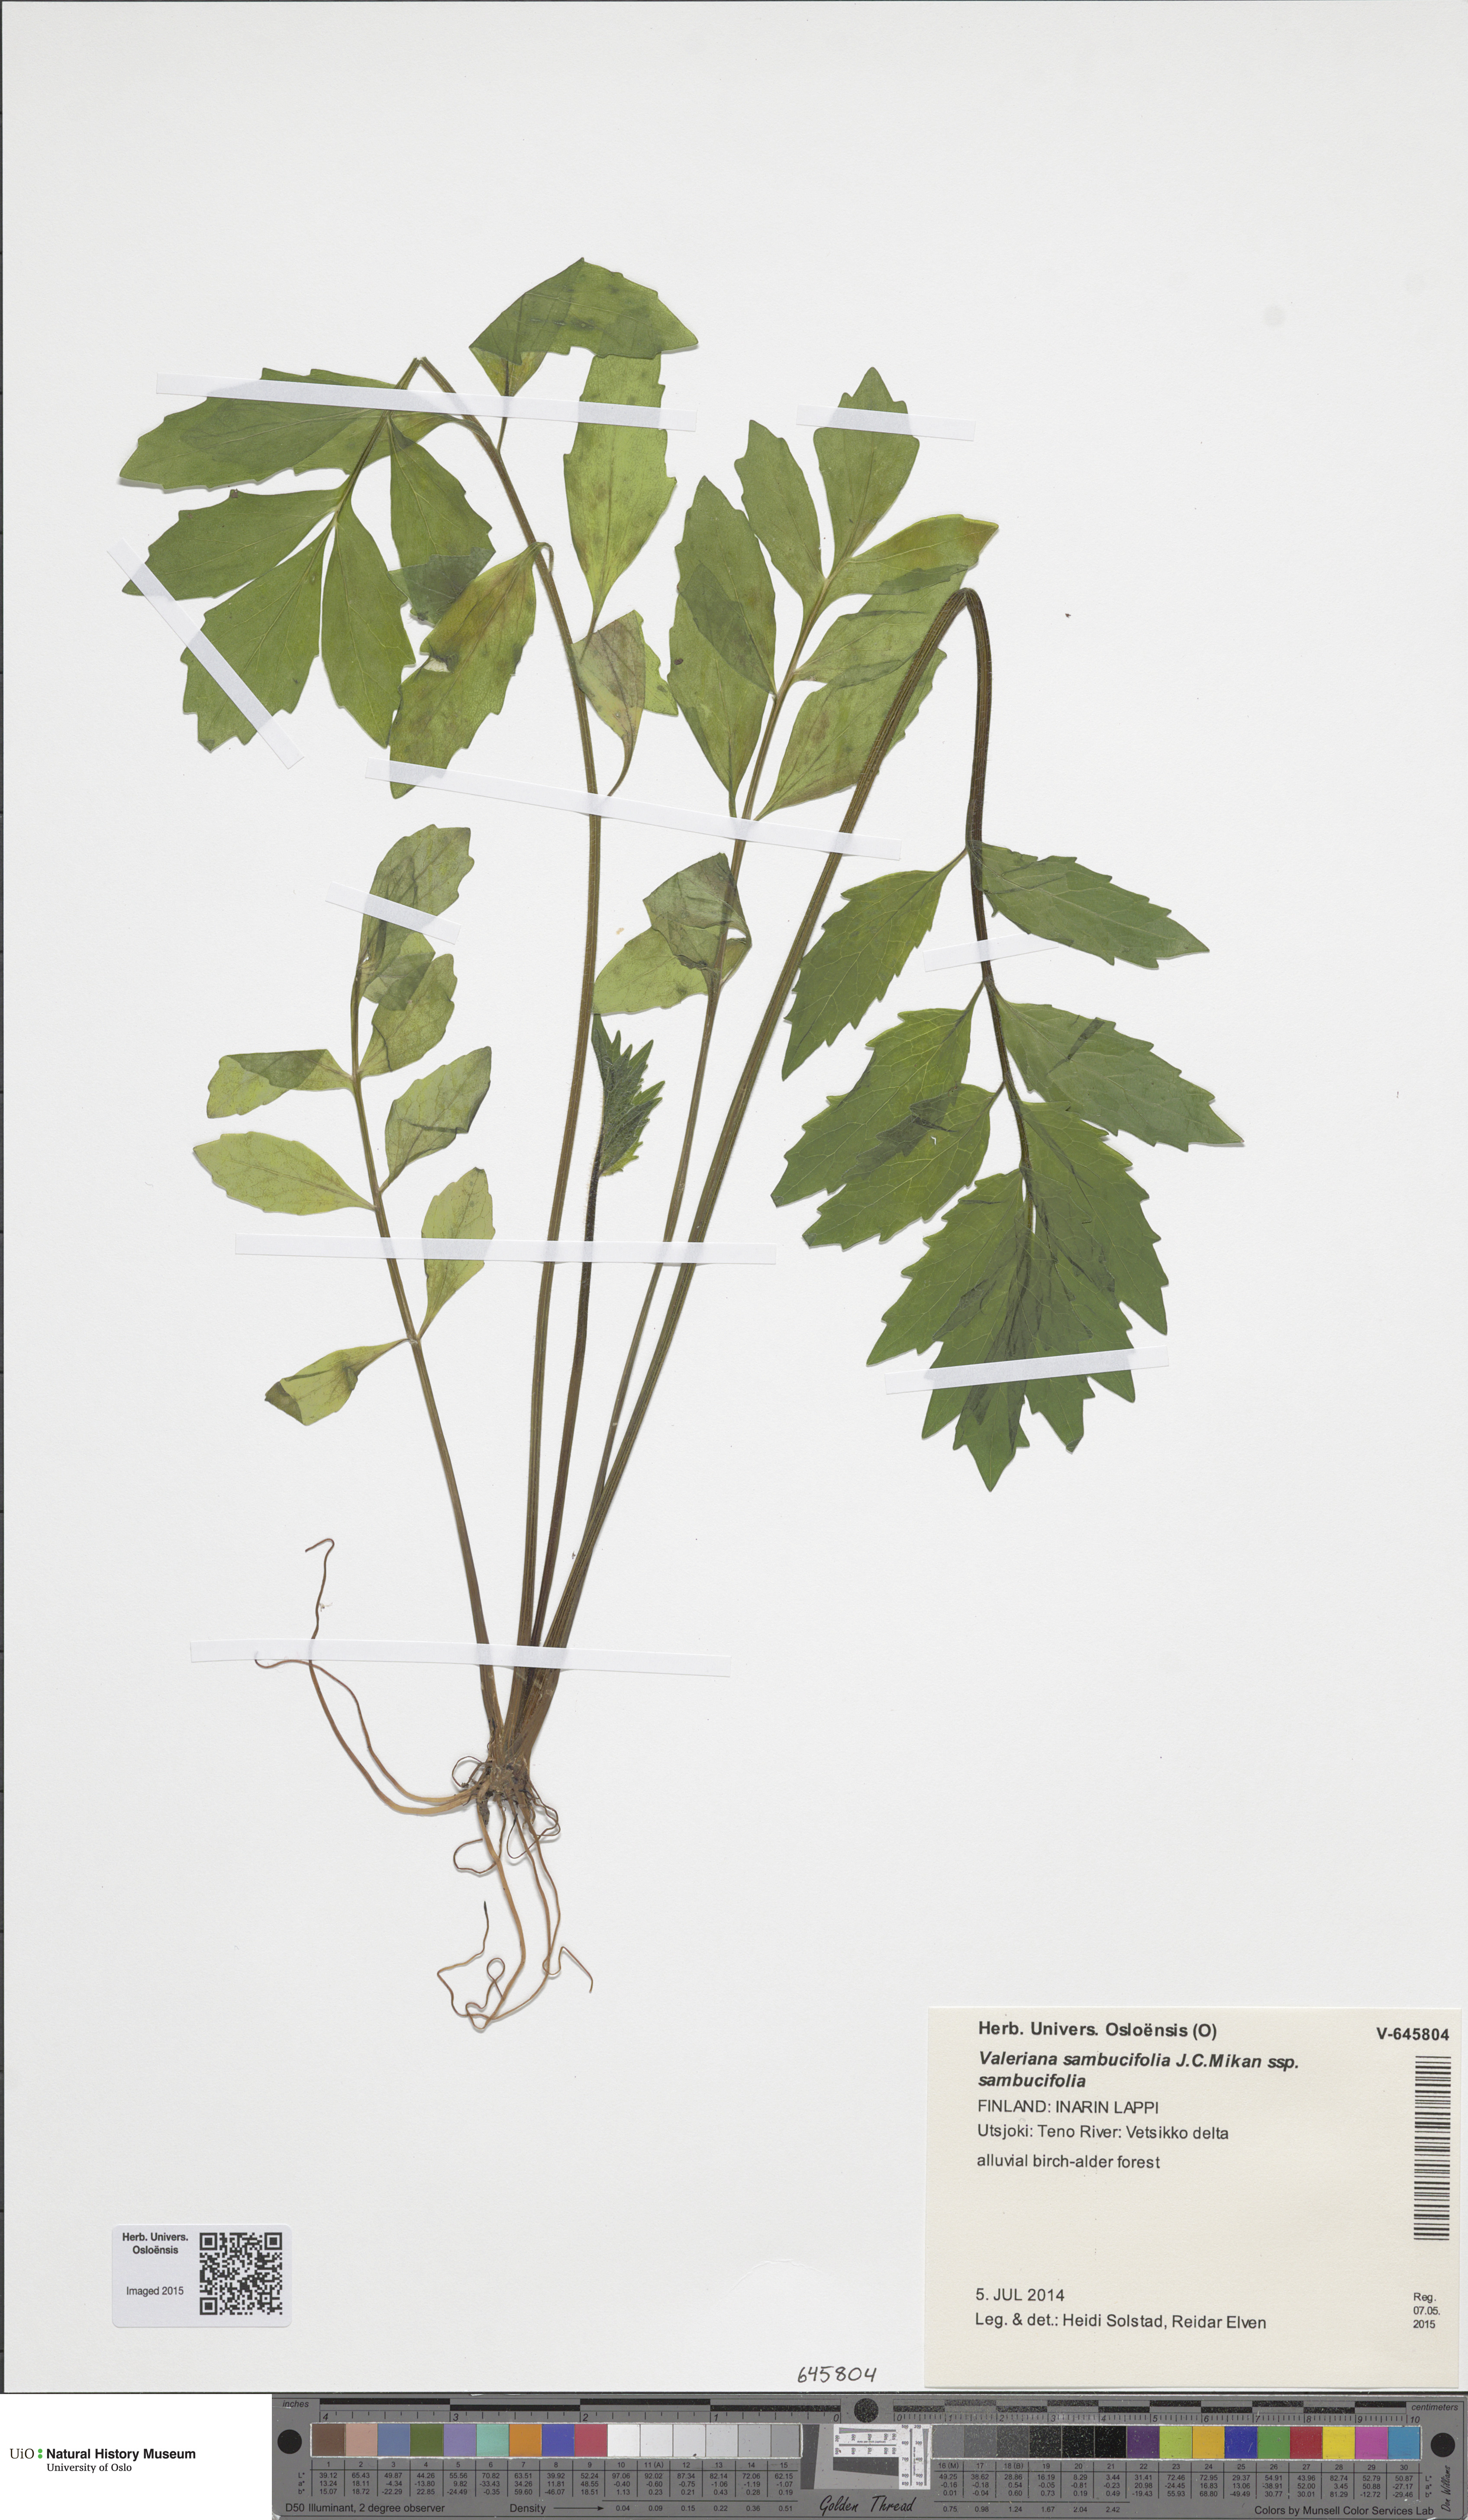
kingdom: Plantae
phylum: Tracheophyta
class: Magnoliopsida
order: Dipsacales
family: Caprifoliaceae
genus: Valeriana
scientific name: Valeriana sambucifolia
